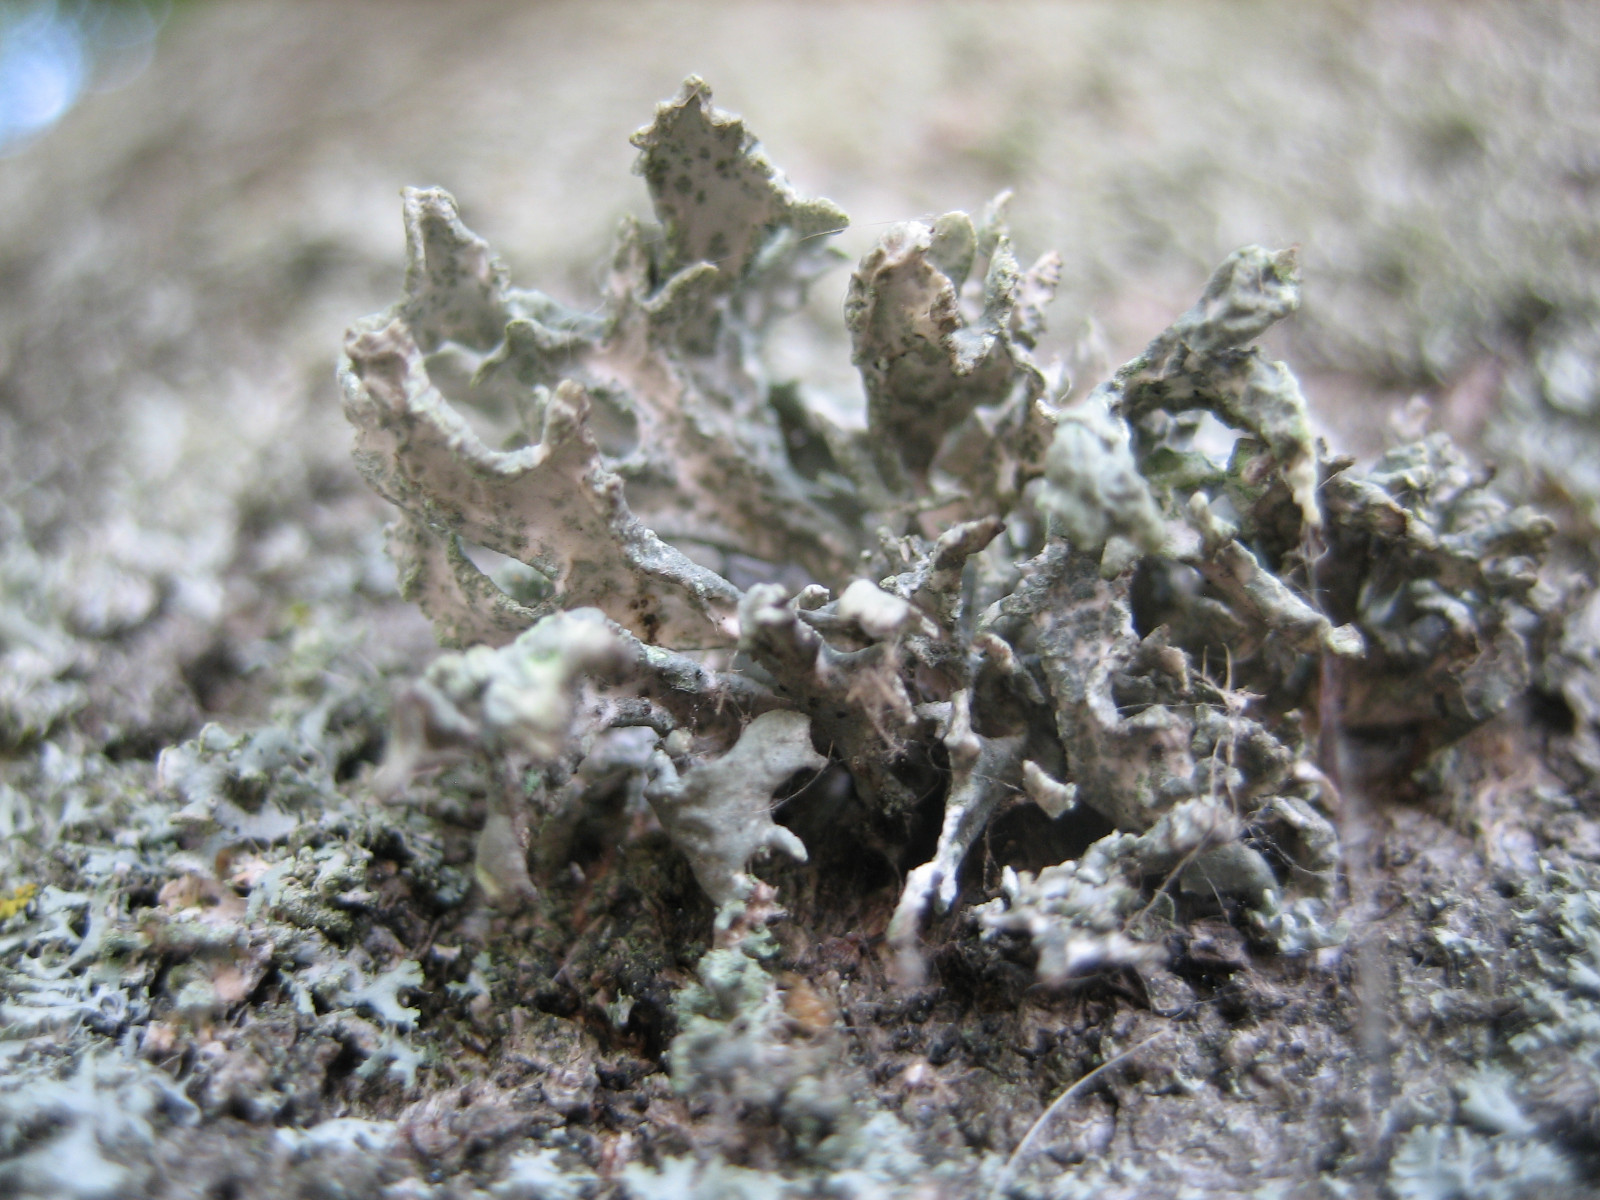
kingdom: Fungi
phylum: Ascomycota
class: Lecanoromycetes
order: Lecanorales
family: Parmeliaceae
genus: Evernia
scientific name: Evernia prunastri
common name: almindelig slåenlav
